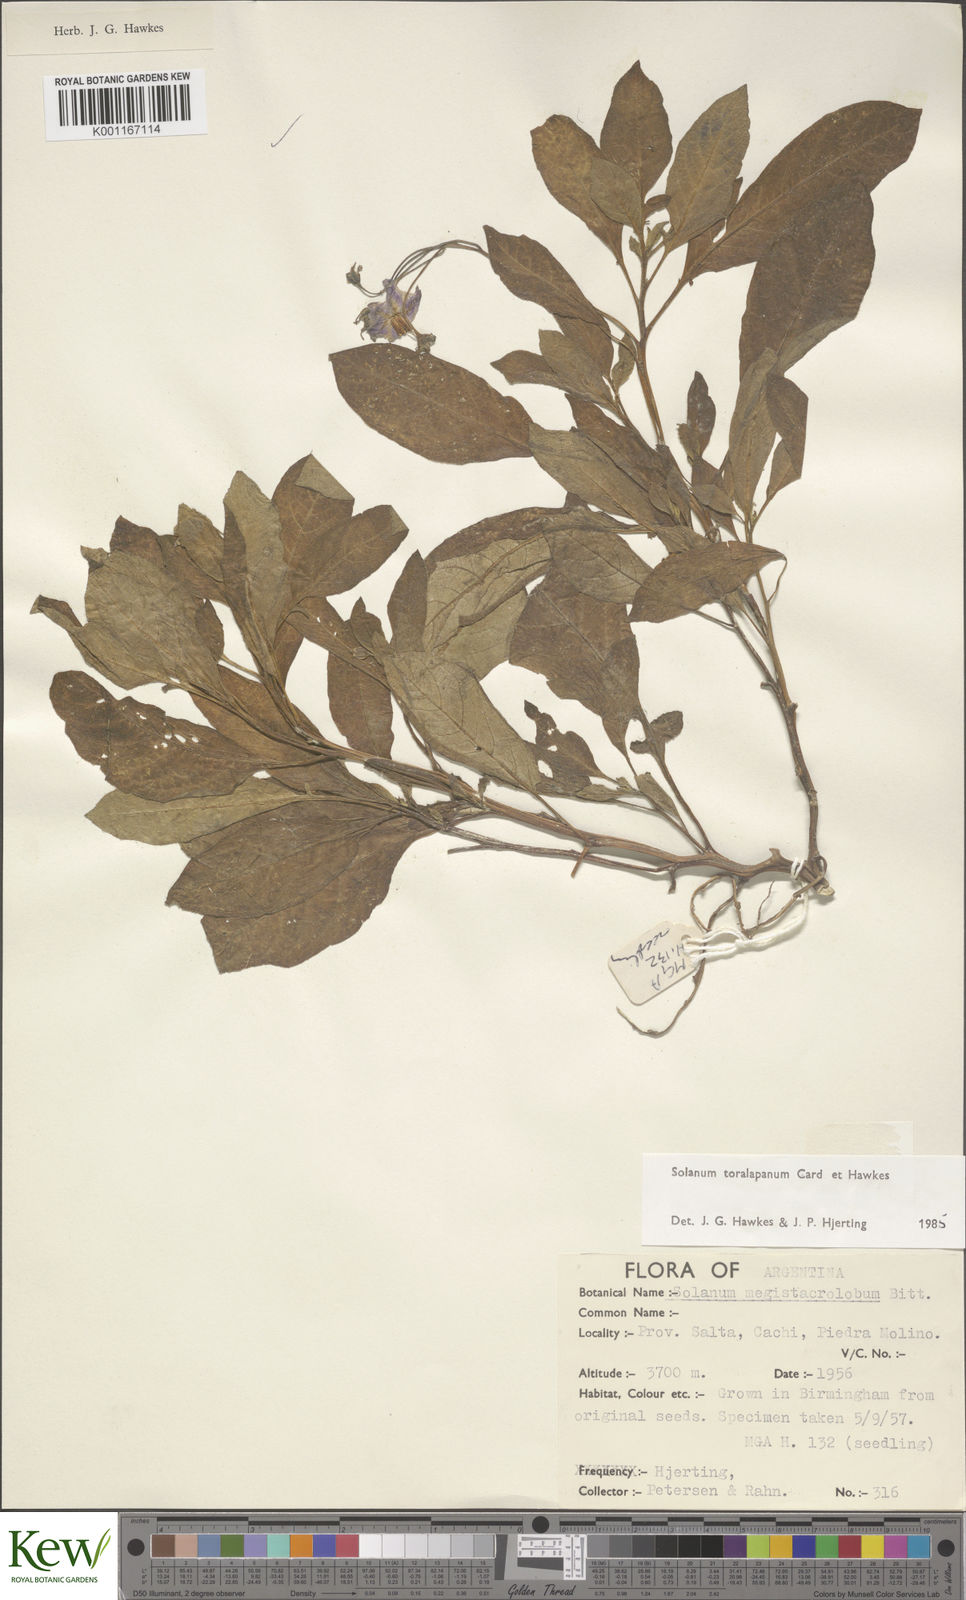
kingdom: Plantae
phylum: Tracheophyta
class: Magnoliopsida
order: Solanales
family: Solanaceae
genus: Solanum
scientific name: Solanum
